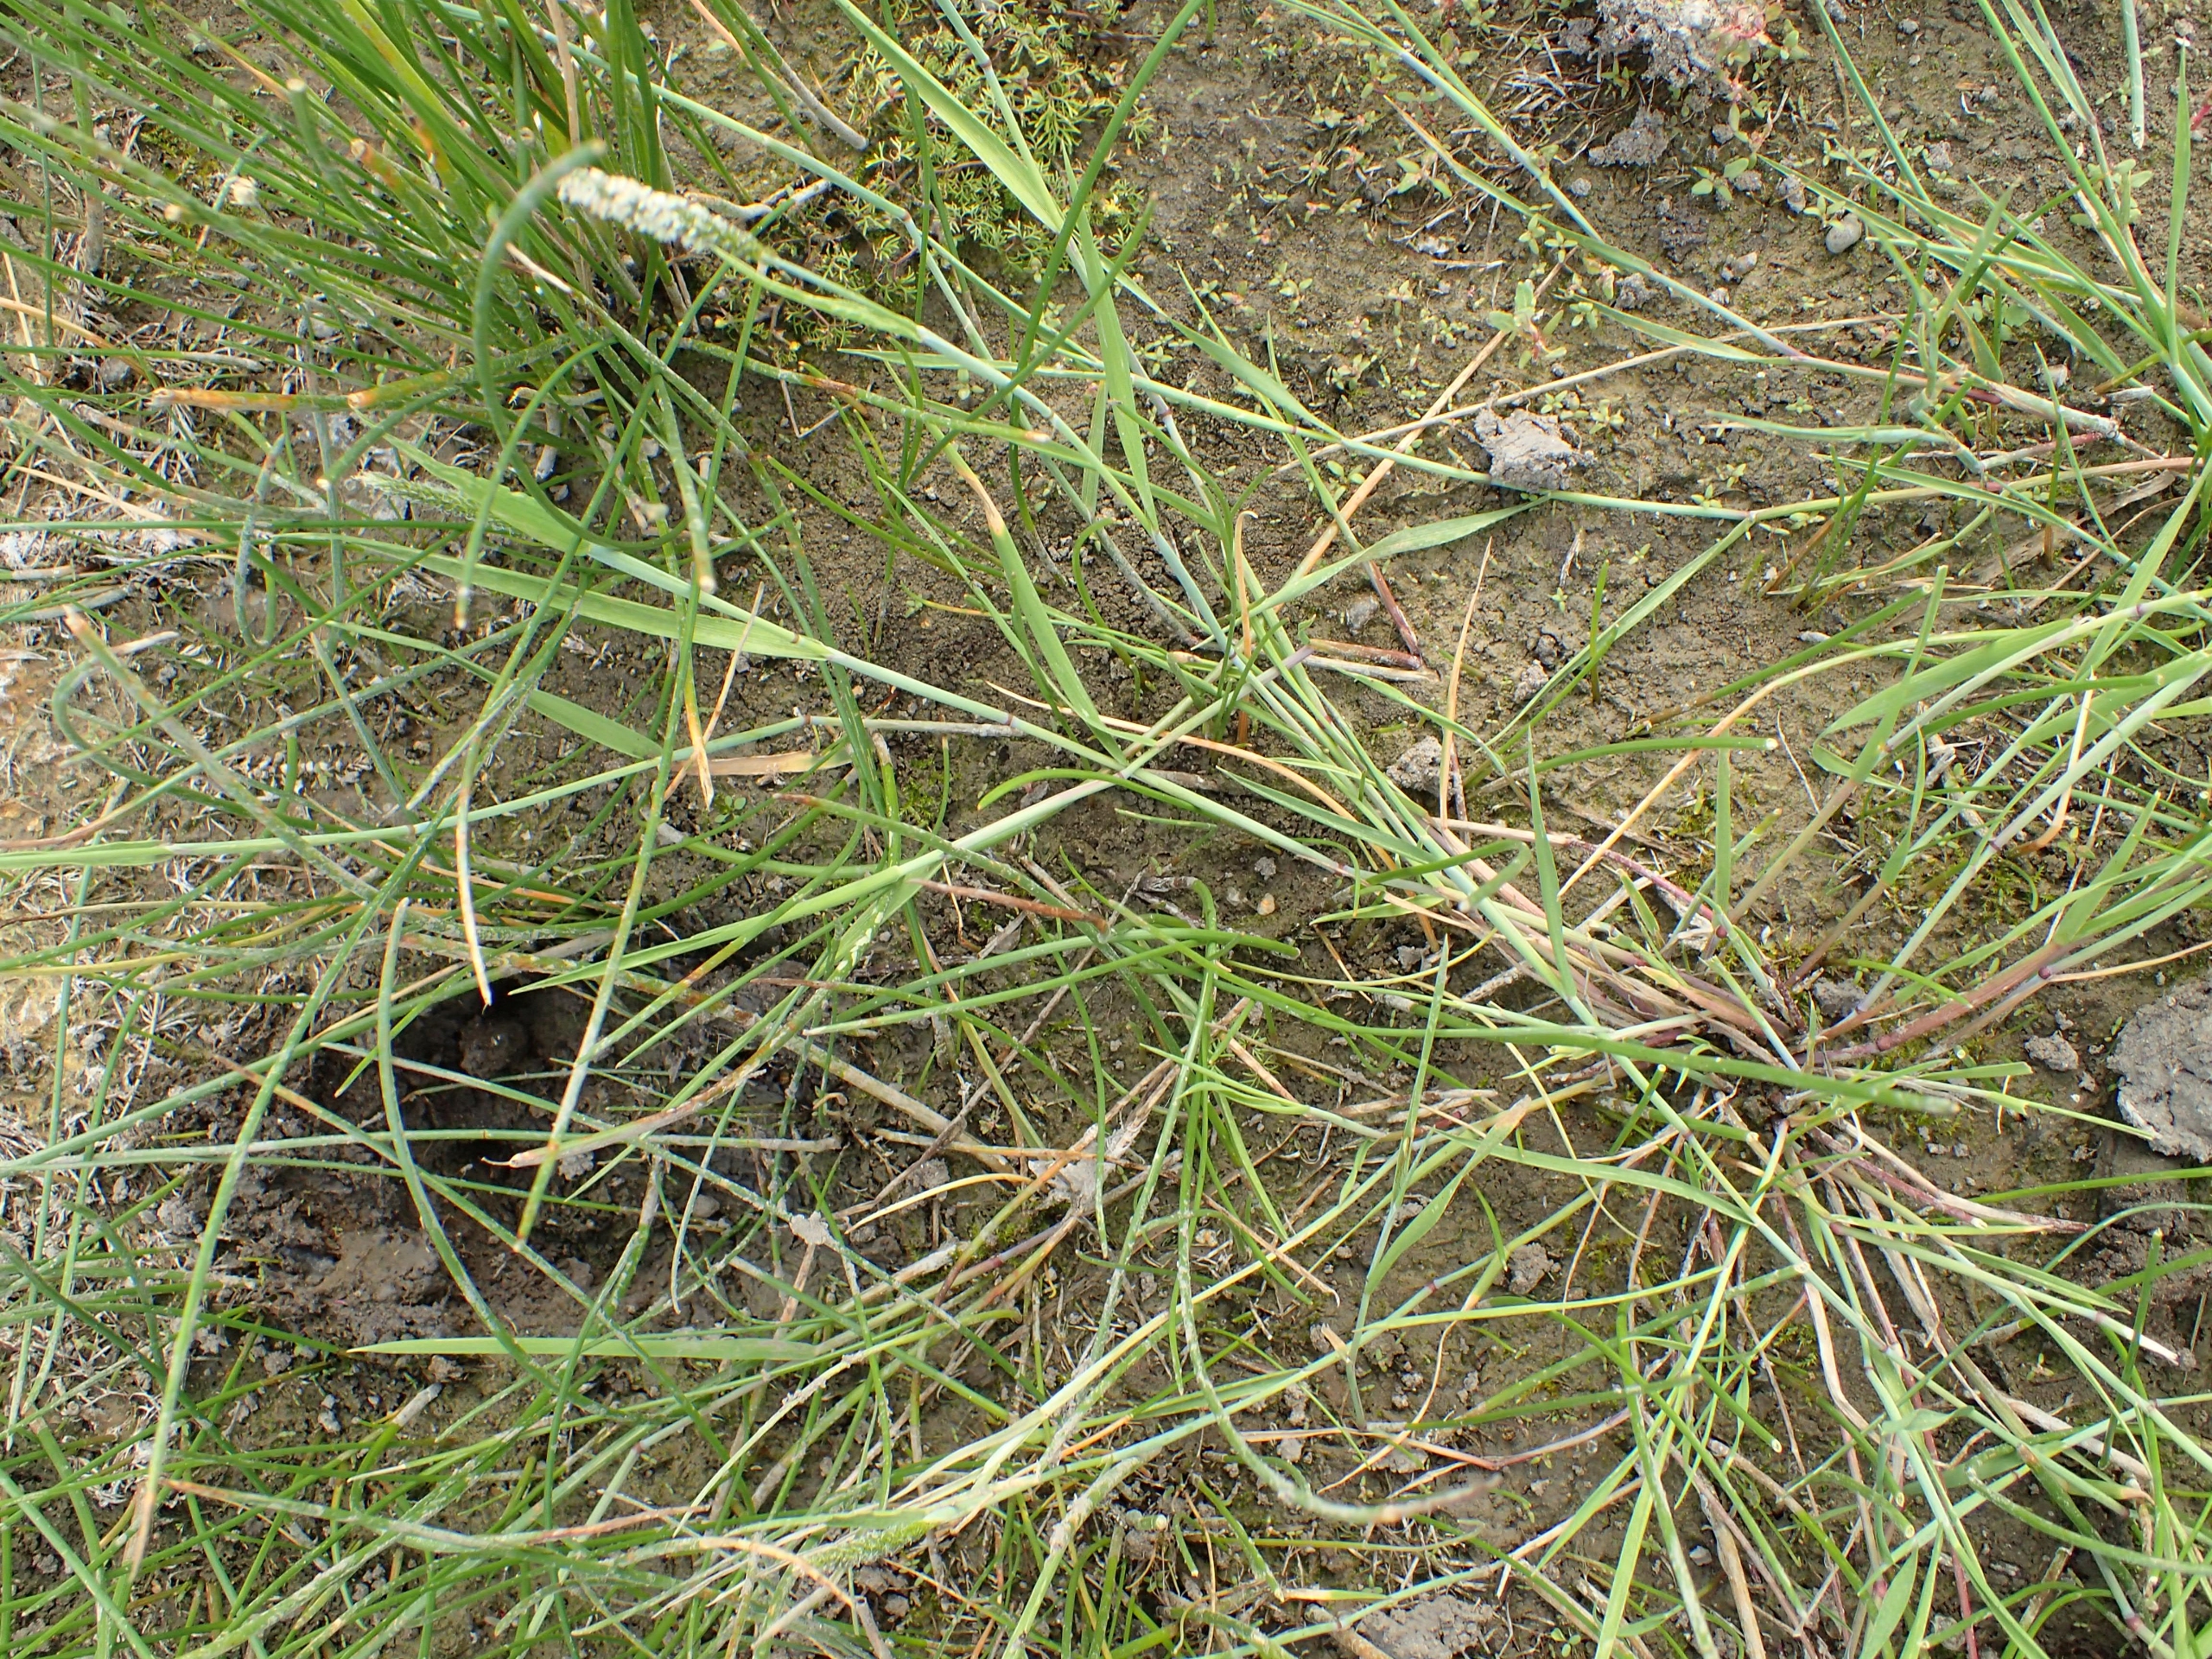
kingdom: Plantae
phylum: Tracheophyta
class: Liliopsida
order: Poales
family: Poaceae
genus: Alopecurus
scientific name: Alopecurus aequalis
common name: Gul rævehale
